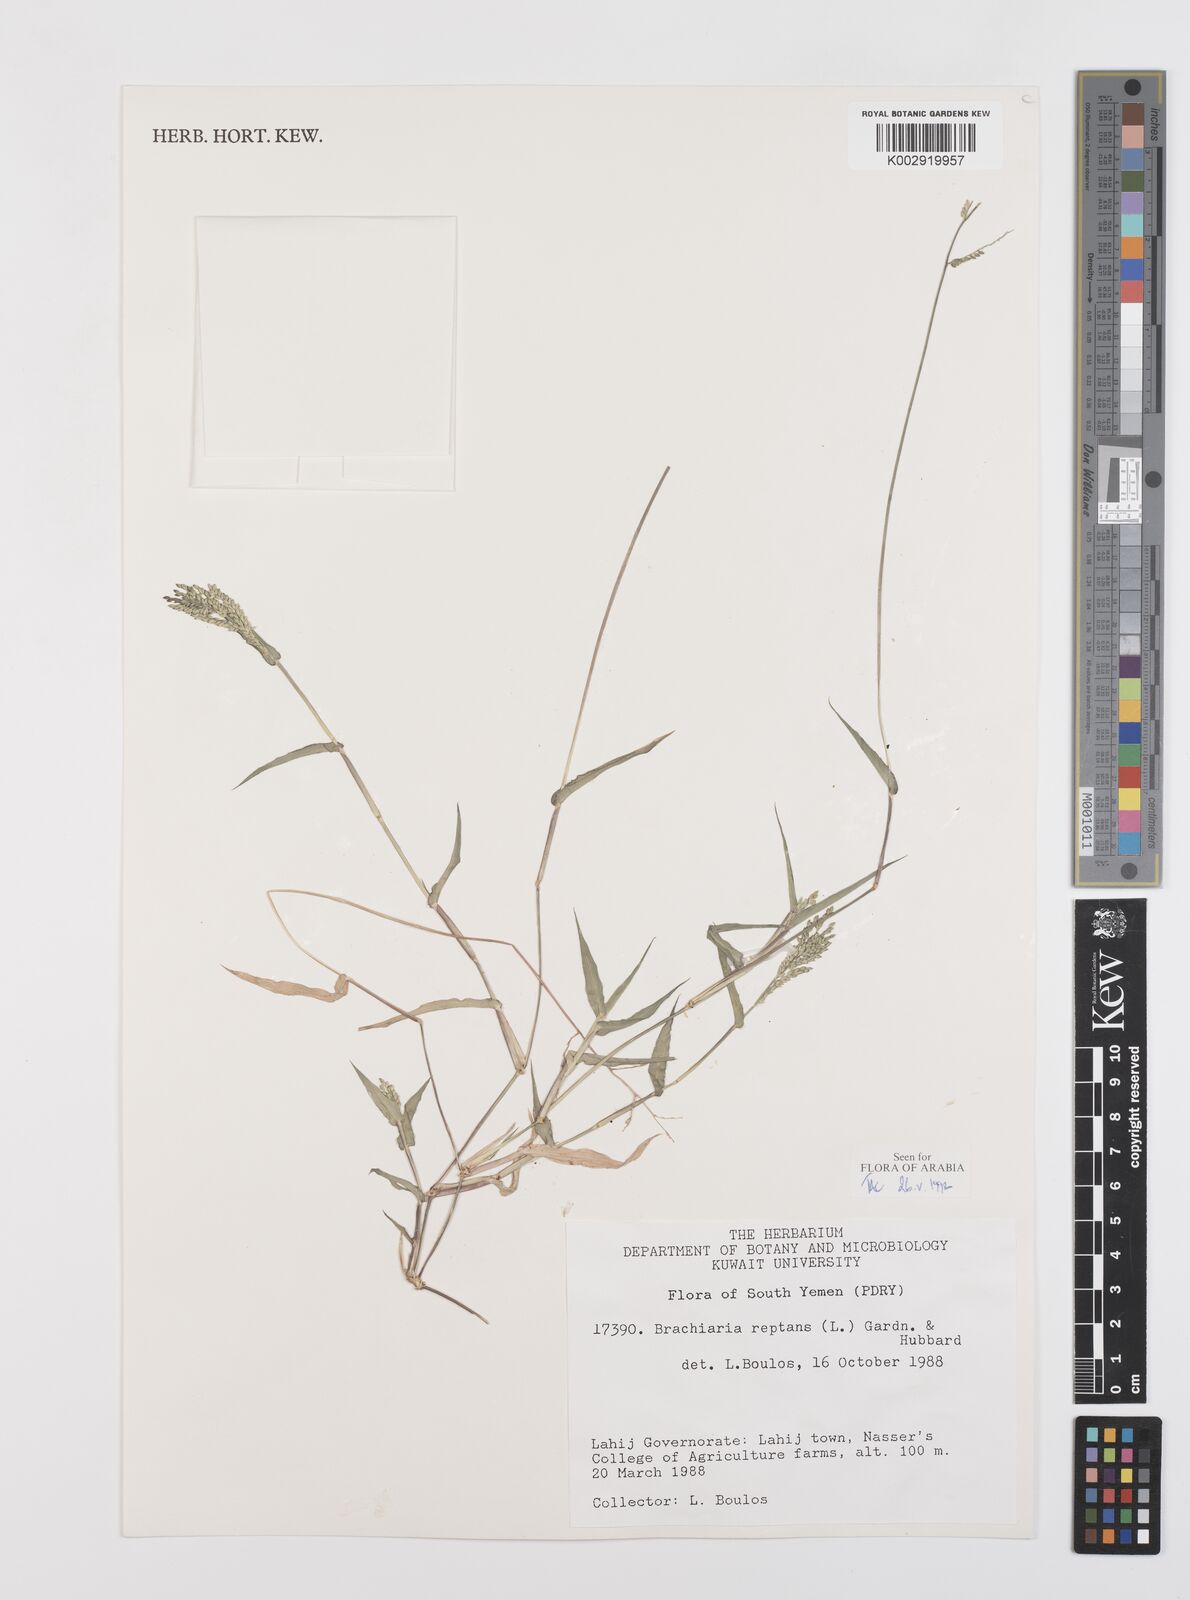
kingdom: Plantae
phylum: Tracheophyta
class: Liliopsida
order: Poales
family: Poaceae
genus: Urochloa
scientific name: Urochloa reptans
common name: Sprawling signalgrass
